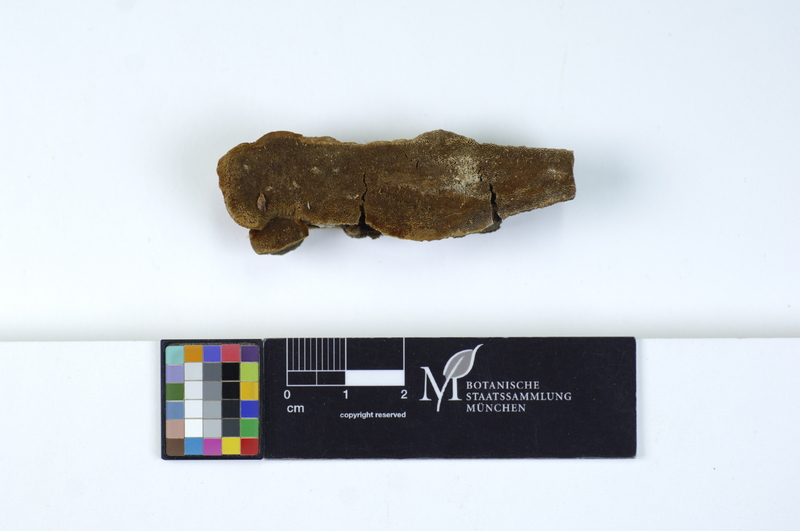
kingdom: Plantae
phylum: Tracheophyta
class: Pinopsida
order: Pinales
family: Pinaceae
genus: Pinus
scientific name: Pinus
